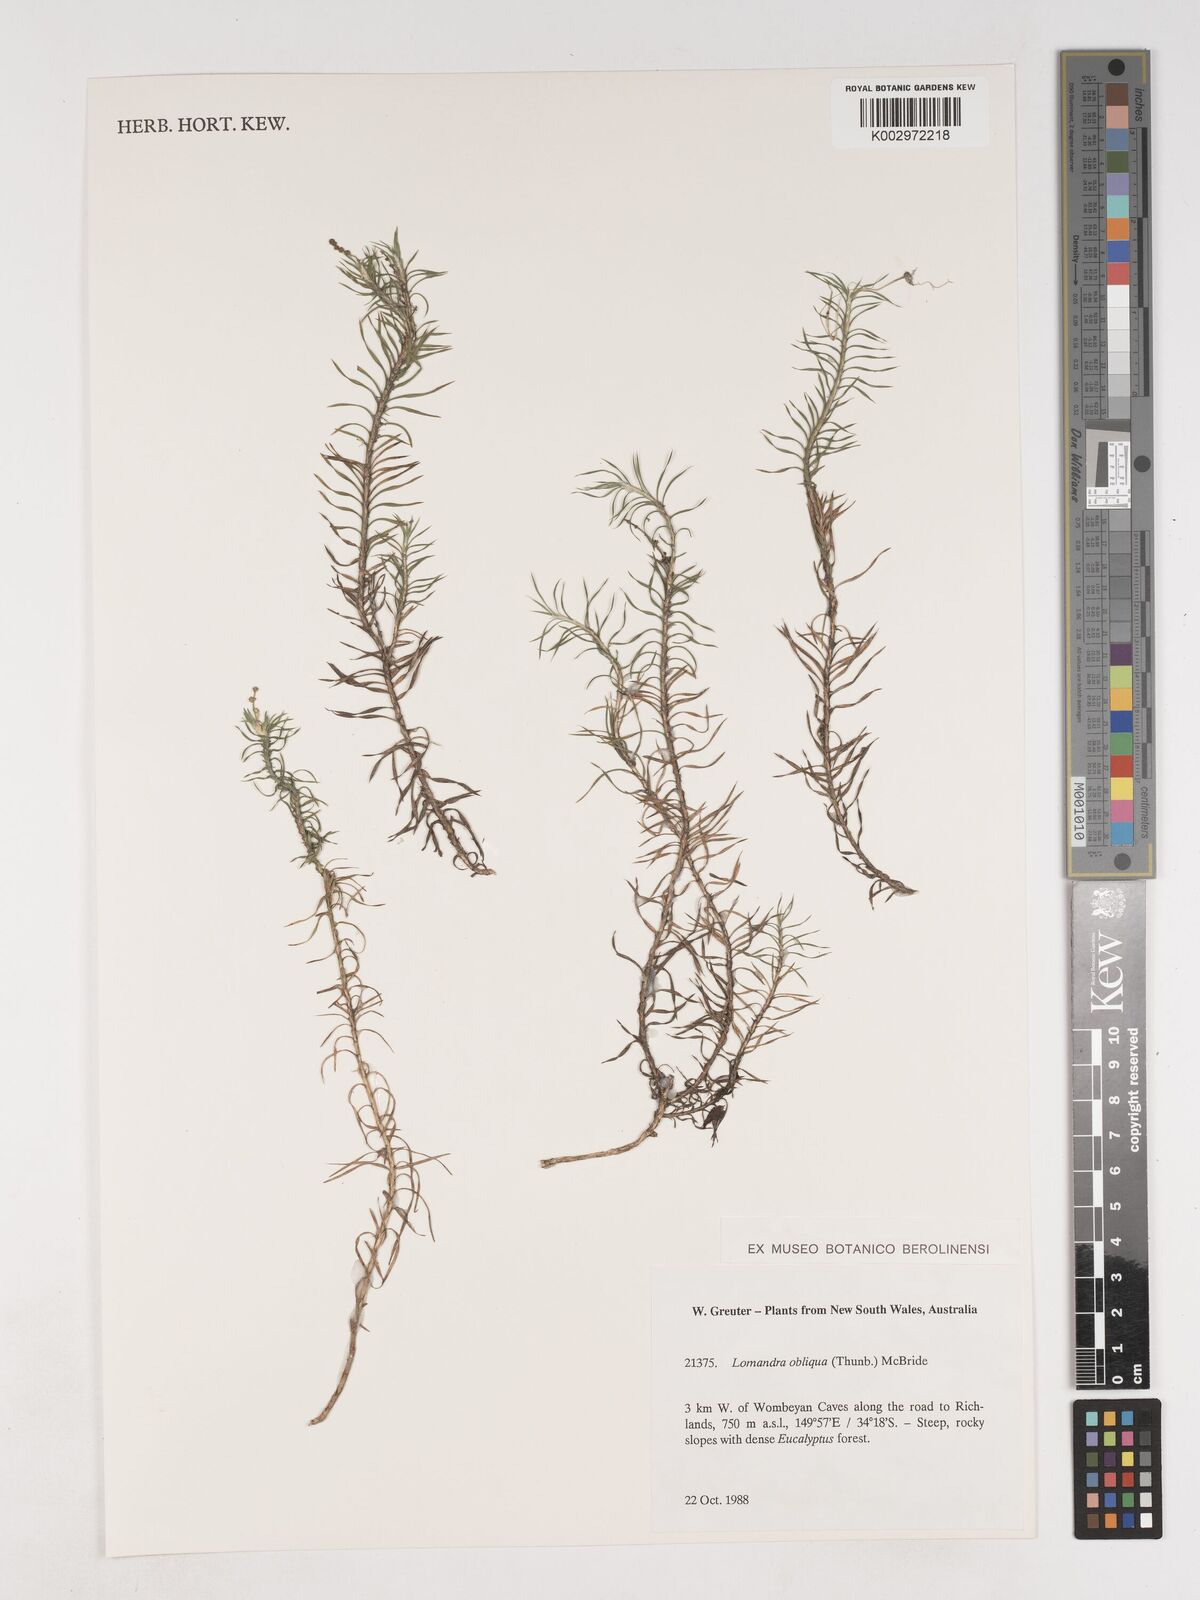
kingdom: Plantae
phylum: Tracheophyta
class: Liliopsida
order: Asparagales
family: Asparagaceae
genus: Lomandra
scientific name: Lomandra obliqua
